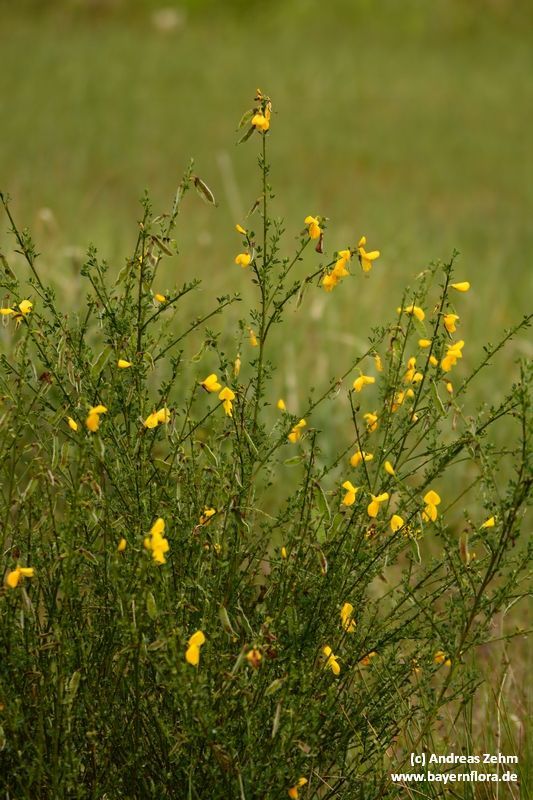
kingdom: Plantae
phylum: Tracheophyta
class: Magnoliopsida
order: Fabales
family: Fabaceae
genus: Cytisus
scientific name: Cytisus scoparius
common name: Scotch broom
